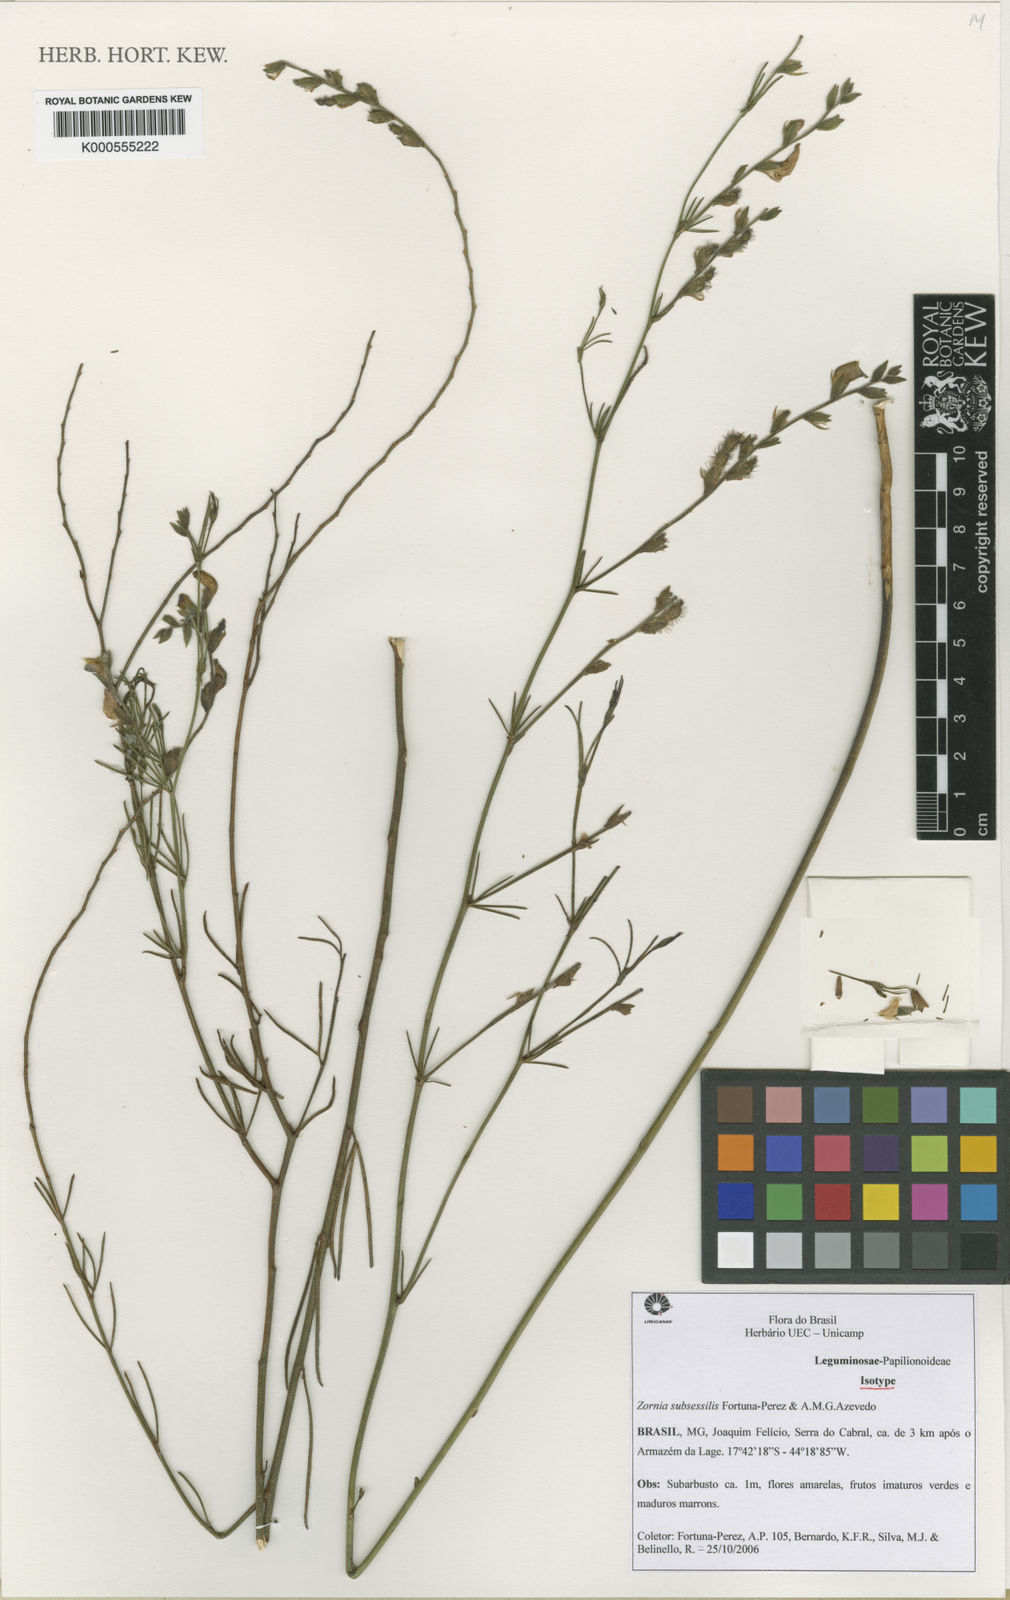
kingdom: Plantae
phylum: Tracheophyta
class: Magnoliopsida
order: Fabales
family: Fabaceae
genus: Zornia
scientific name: Zornia subsessilis
